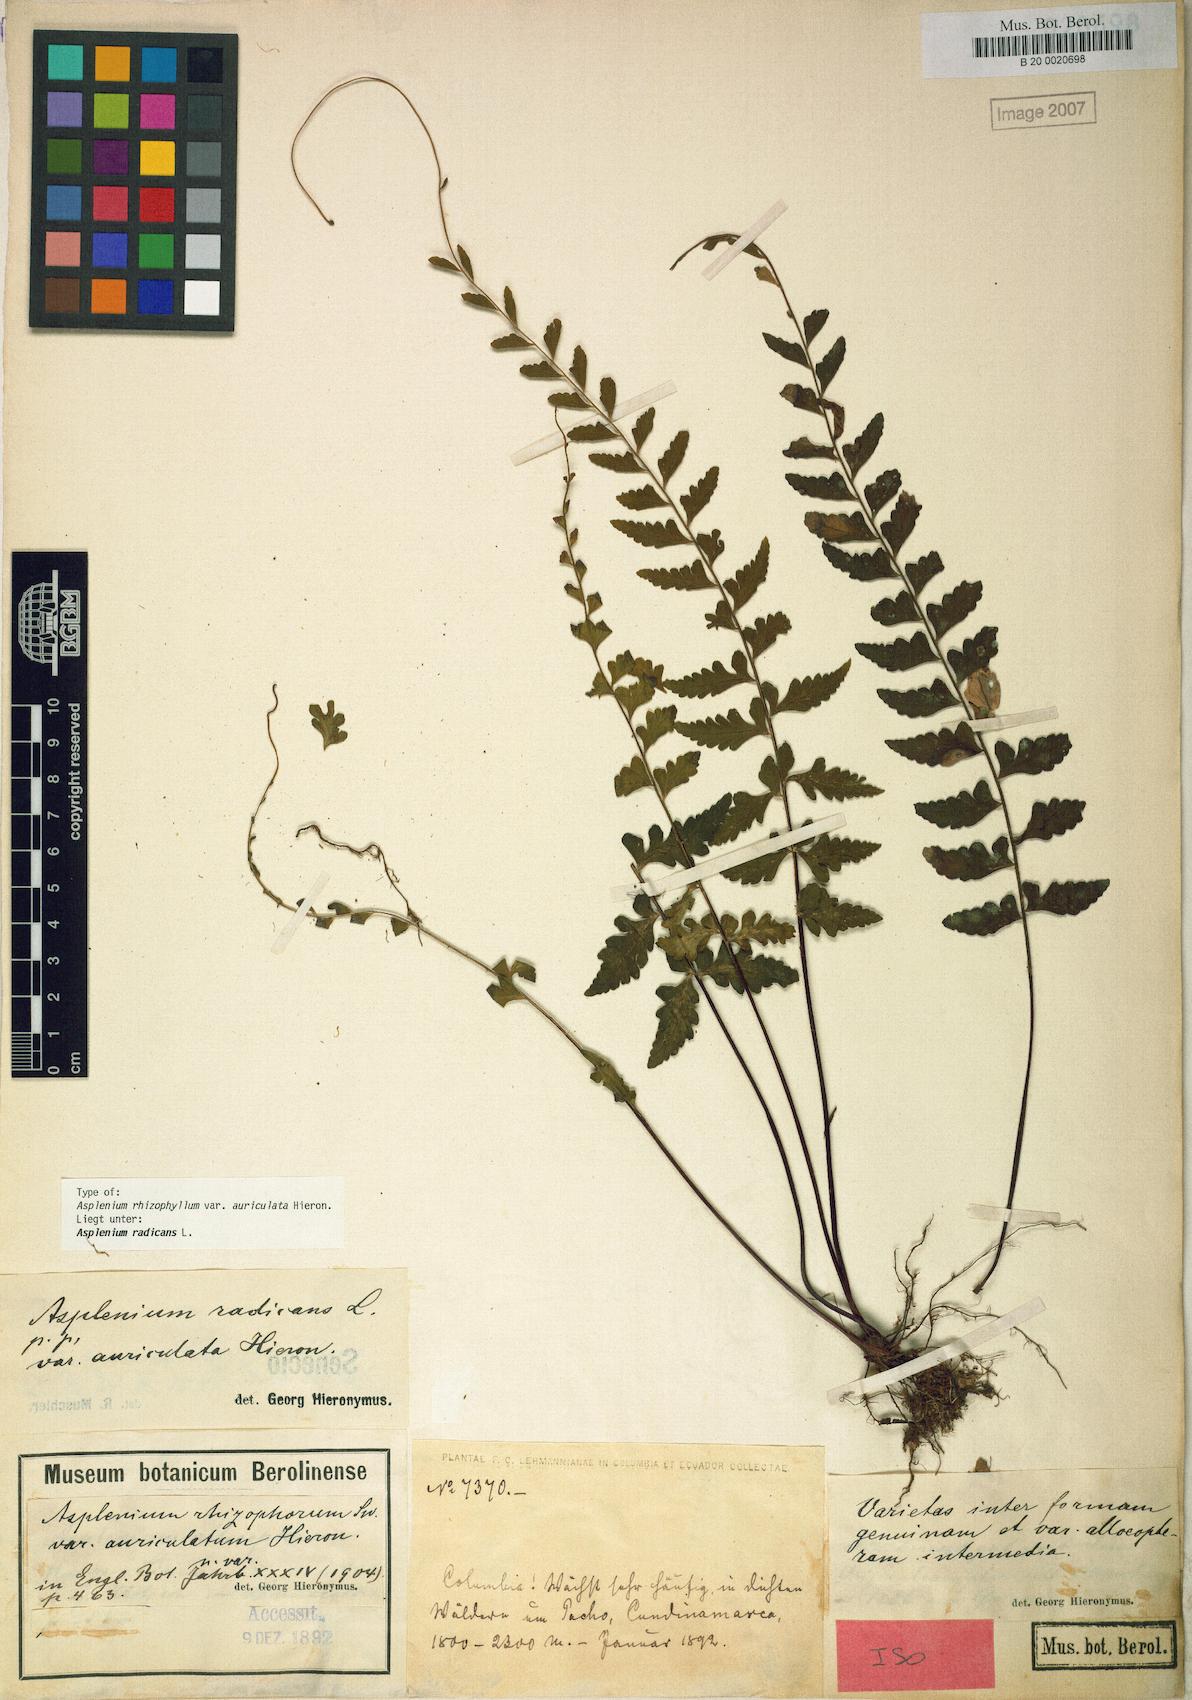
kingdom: Plantae
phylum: Tracheophyta
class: Polypodiopsida
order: Polypodiales
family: Aspleniaceae
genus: Asplenium
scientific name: Asplenium radicans
